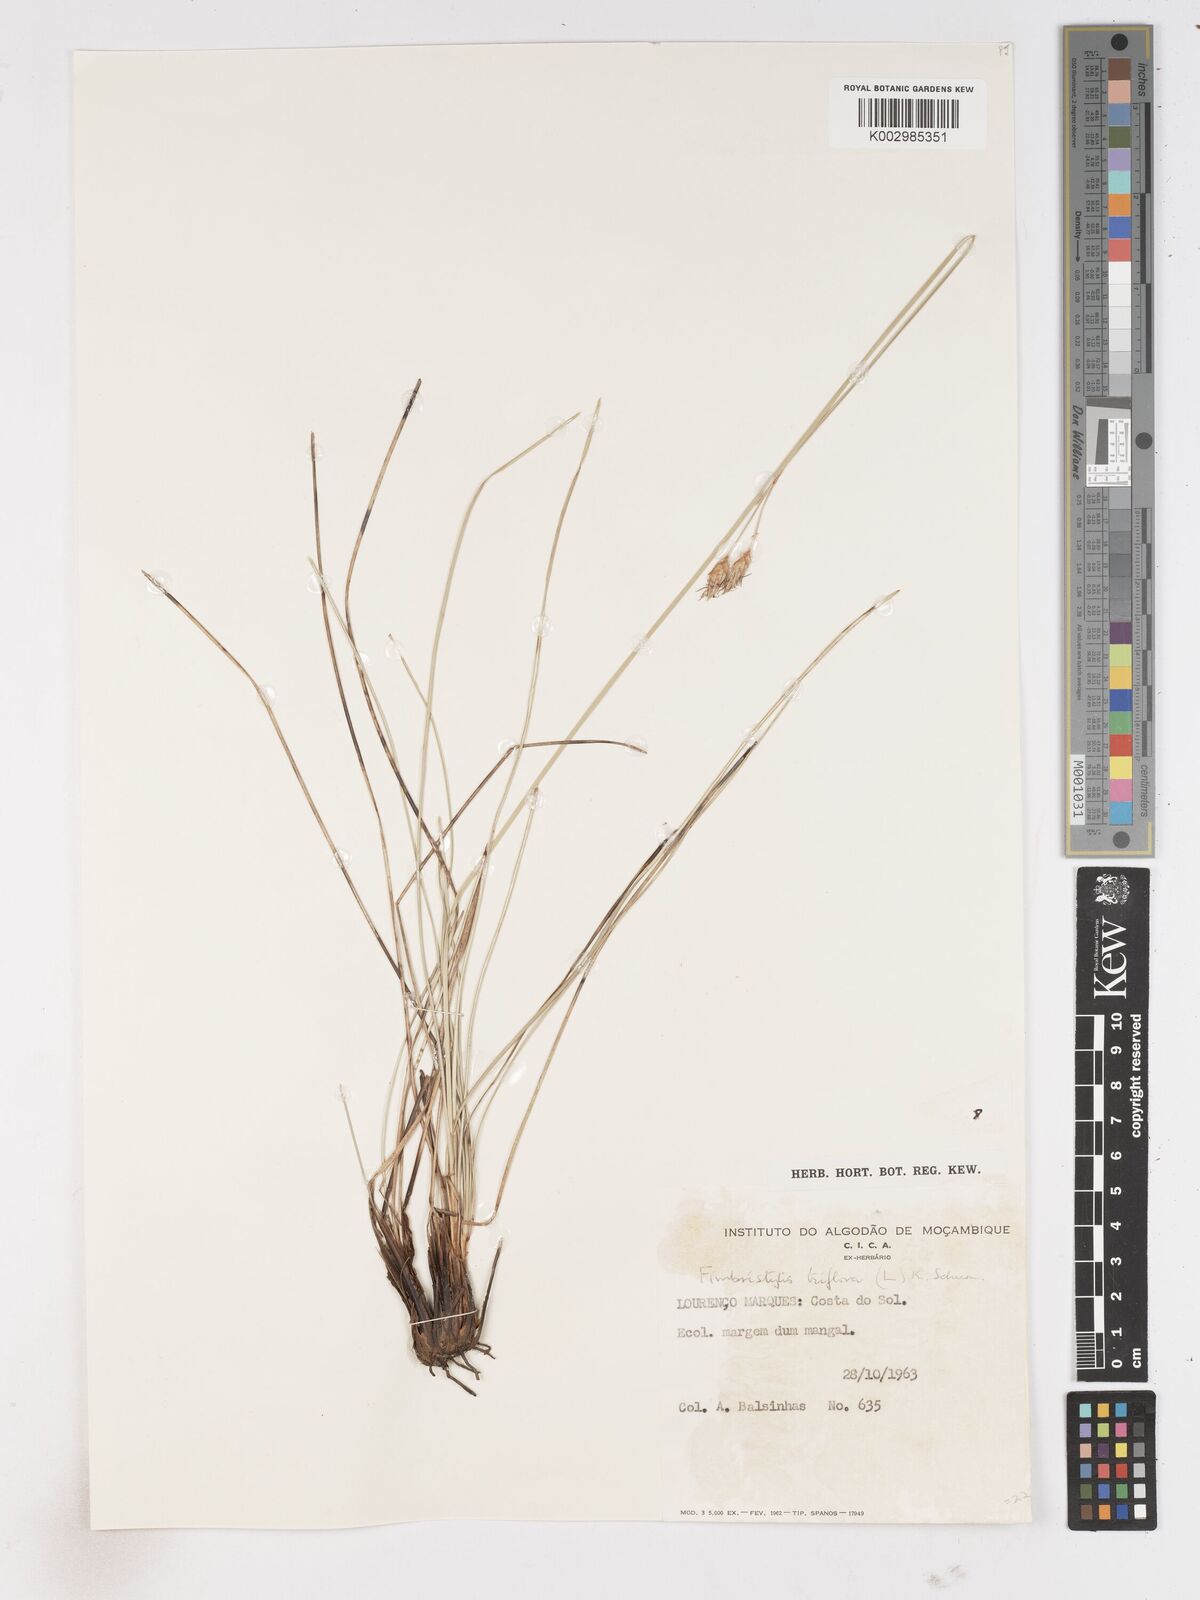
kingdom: Plantae
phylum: Tracheophyta
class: Liliopsida
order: Poales
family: Cyperaceae
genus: Abildgaardia
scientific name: Abildgaardia triflora
